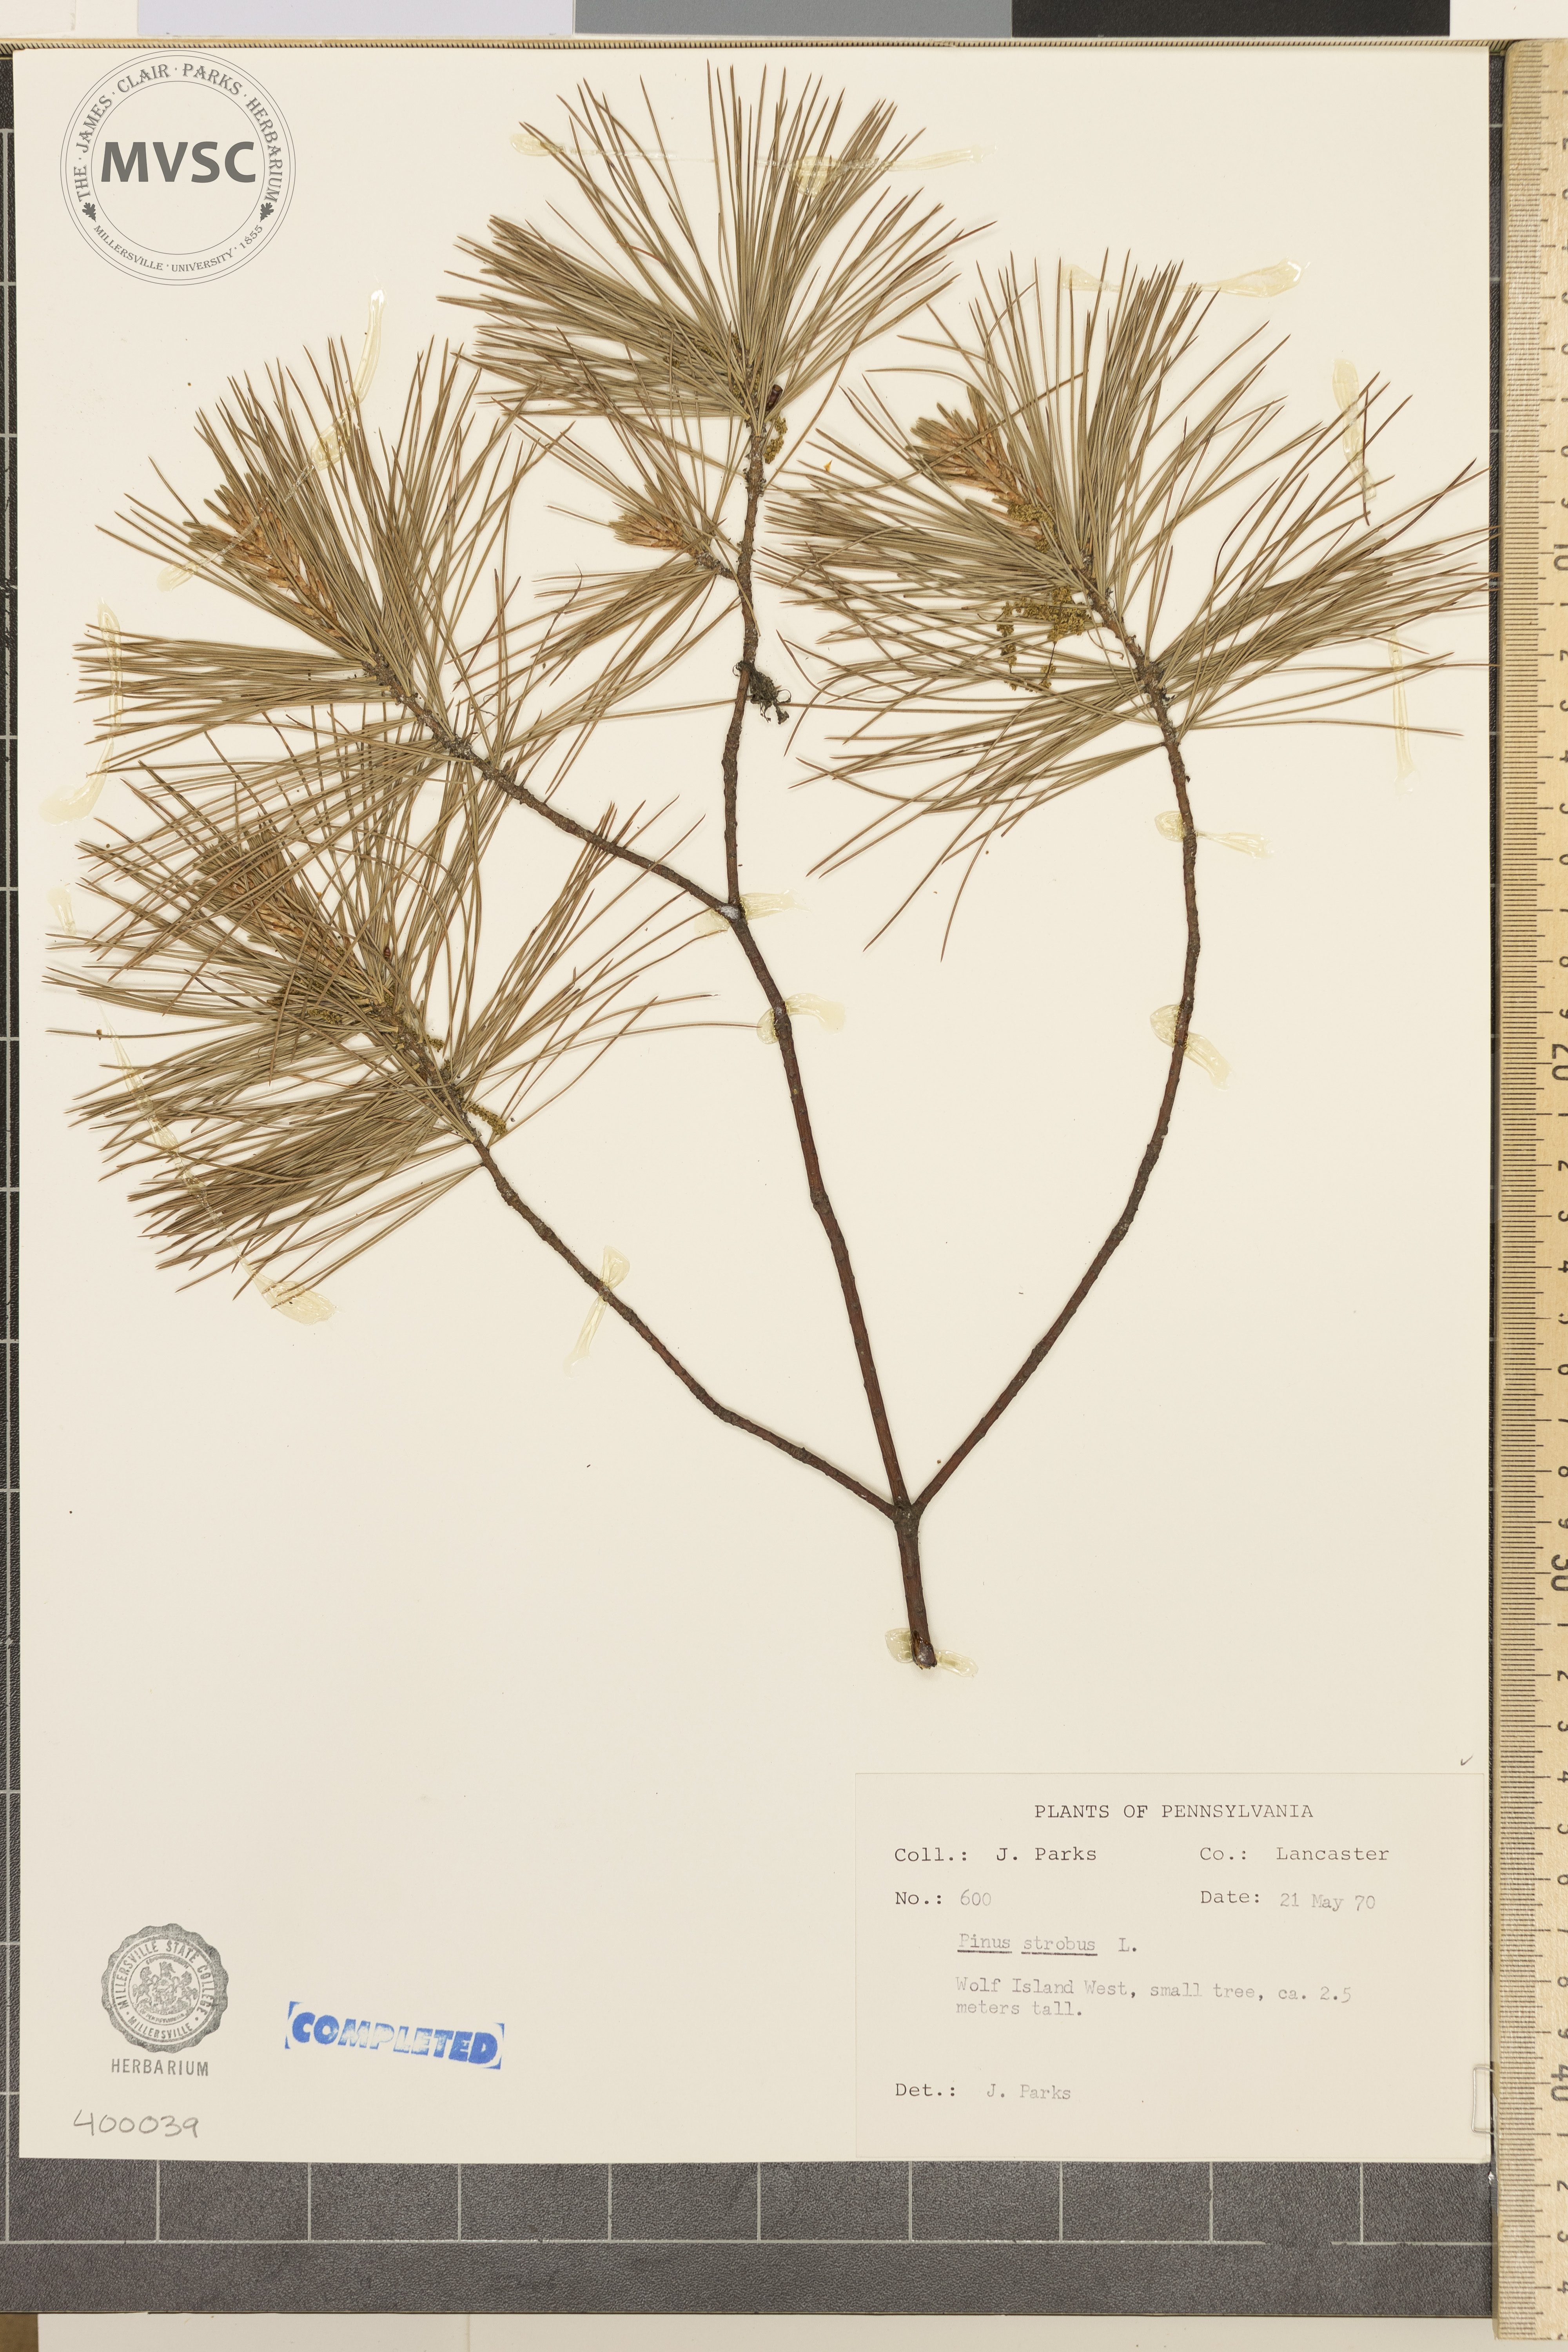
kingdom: Plantae
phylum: Tracheophyta
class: Pinopsida
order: Pinales
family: Pinaceae
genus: Pinus
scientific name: Pinus strobus
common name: Eastern white pine
